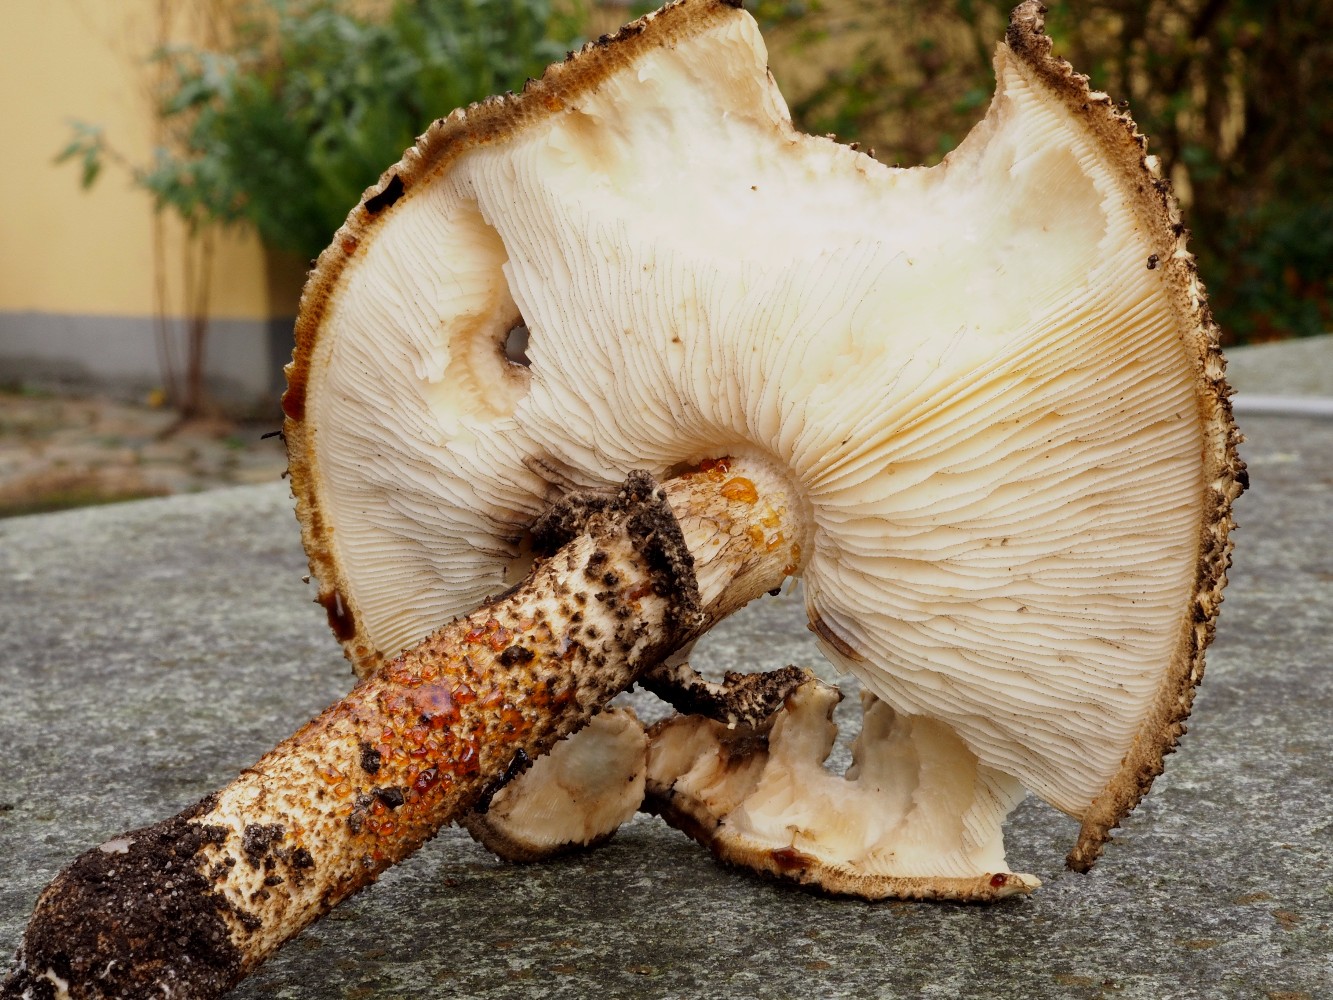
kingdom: Fungi
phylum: Basidiomycota
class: Agaricomycetes
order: Agaricales
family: Agaricaceae
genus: Echinoderma
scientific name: Echinoderma hystrix
